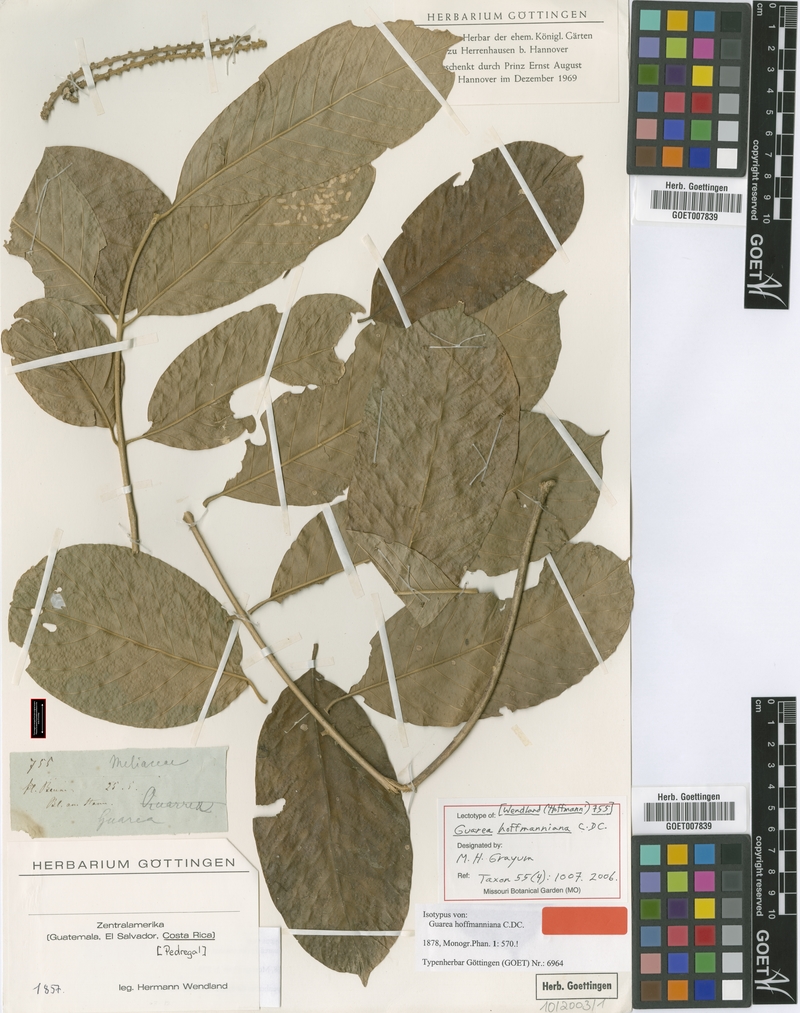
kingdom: Plantae
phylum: Tracheophyta
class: Magnoliopsida
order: Sapindales
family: Meliaceae
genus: Guarea
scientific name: Guarea hoffmanniana
